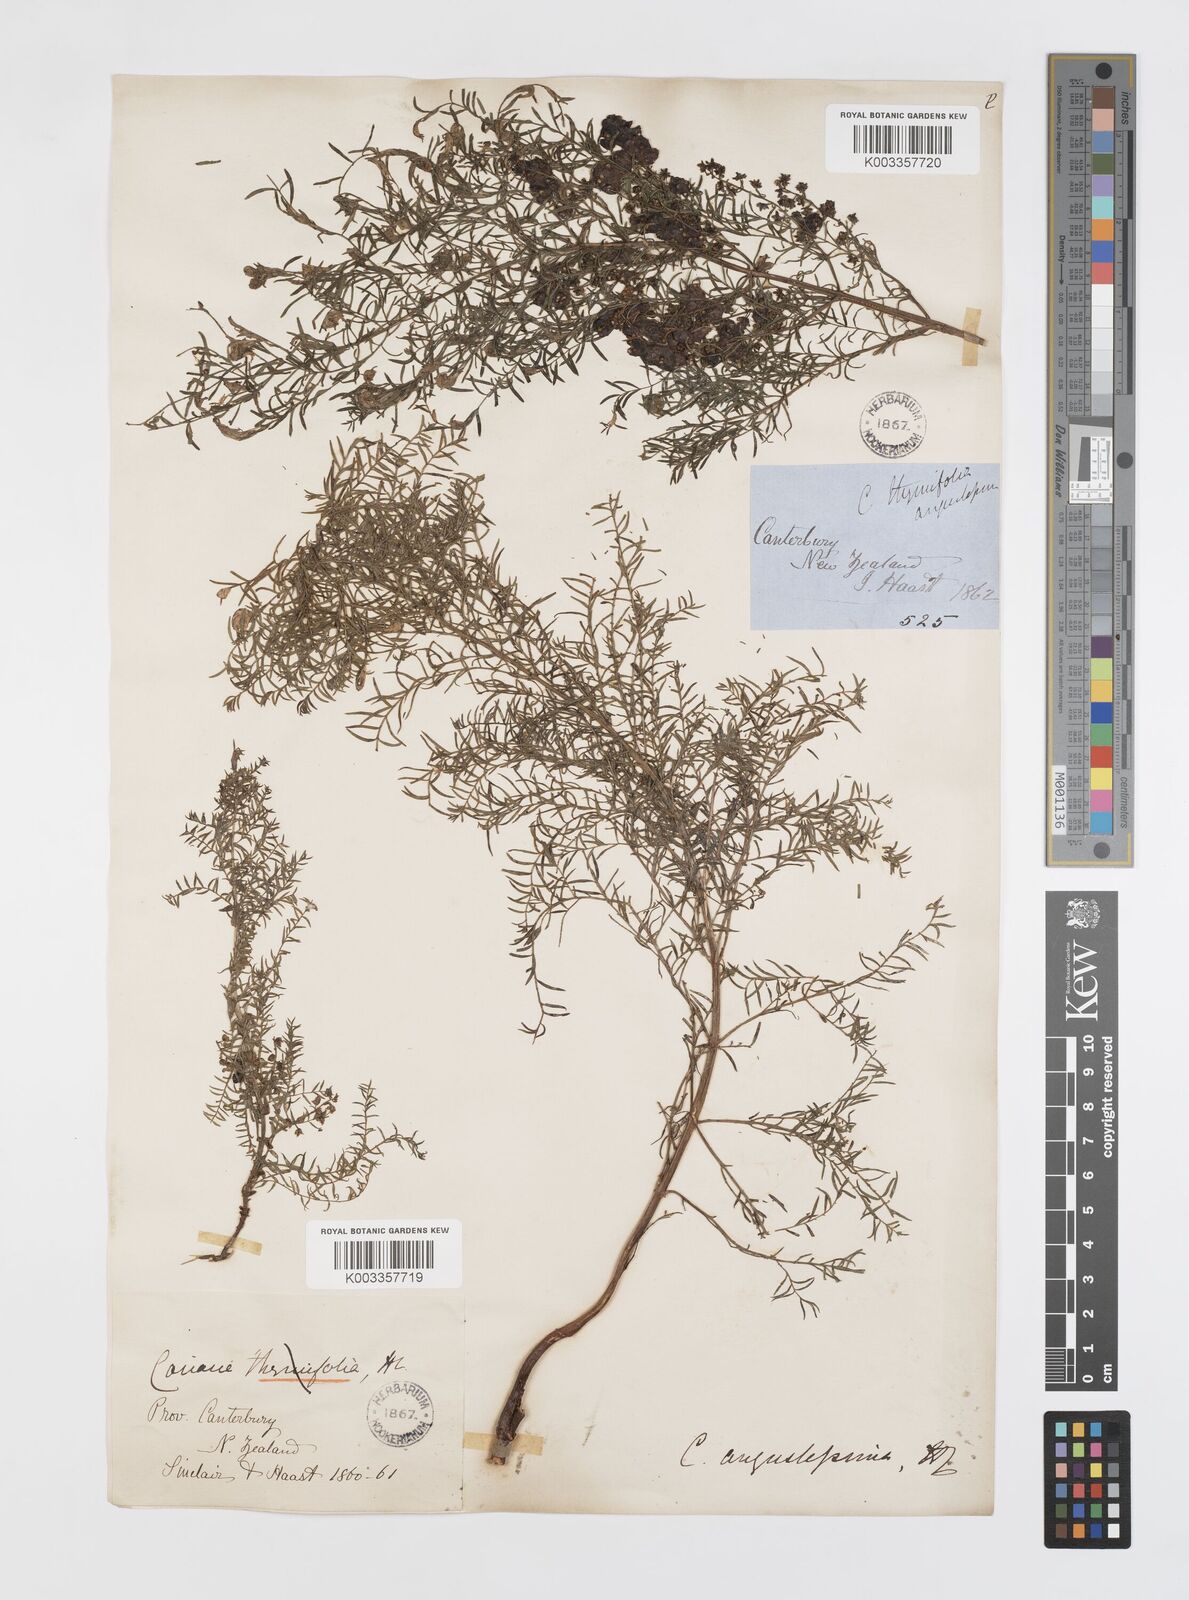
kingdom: Plantae
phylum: Tracheophyta
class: Magnoliopsida
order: Cucurbitales
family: Coriariaceae
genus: Coriaria
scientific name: Coriaria angustissima
